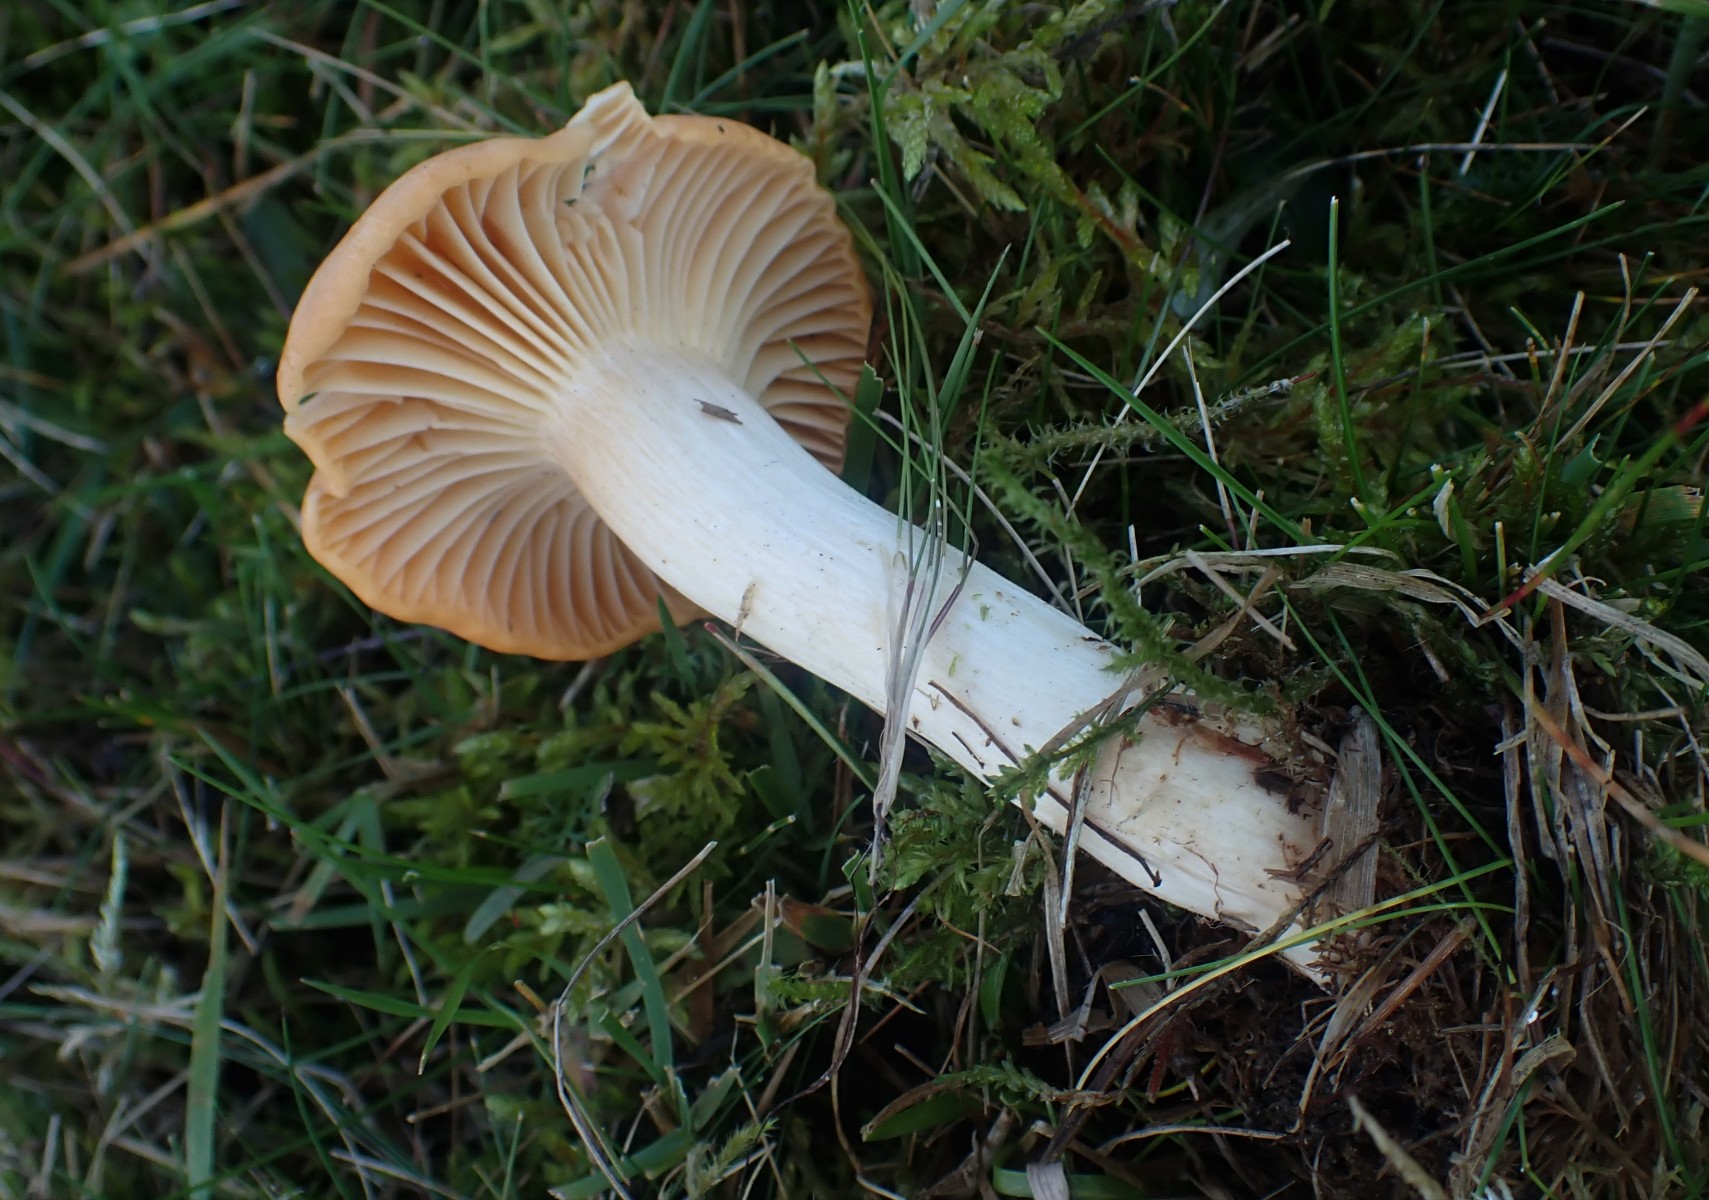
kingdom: Fungi
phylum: Basidiomycota
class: Agaricomycetes
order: Agaricales
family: Hygrophoraceae
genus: Cuphophyllus
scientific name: Cuphophyllus pratensis
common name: eng-vokshat
